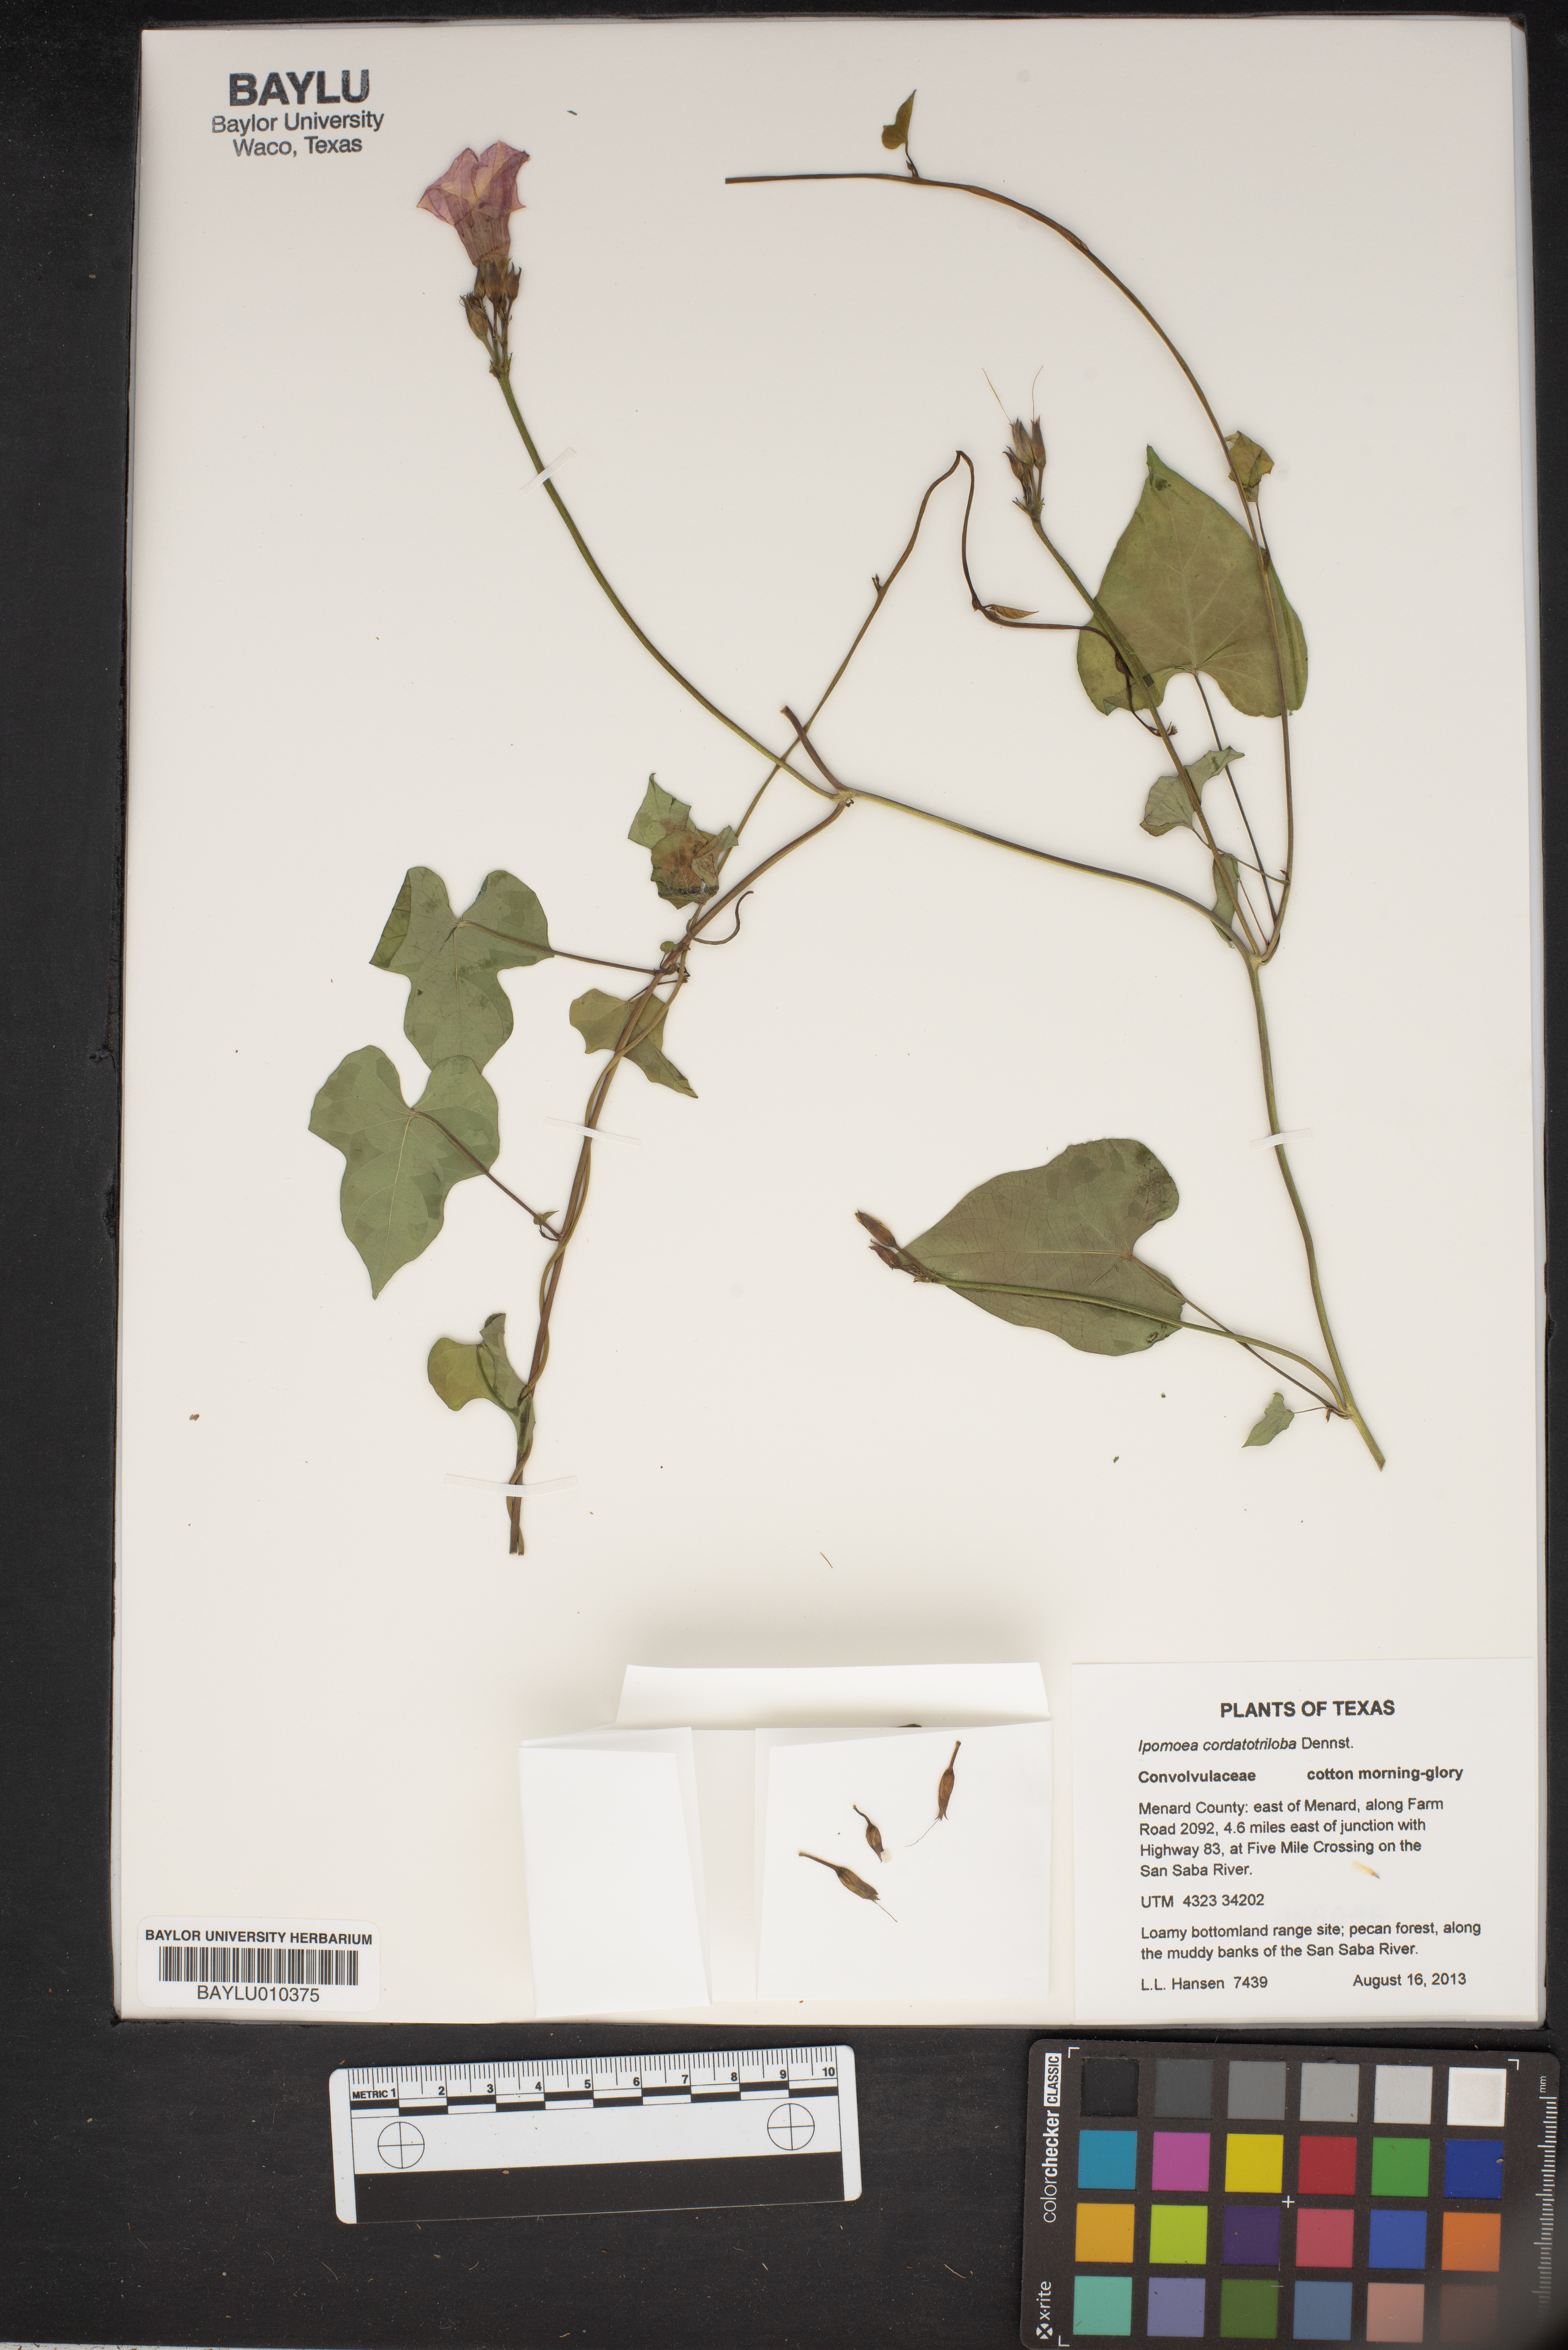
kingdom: Plantae
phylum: Tracheophyta
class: Magnoliopsida
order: Solanales
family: Convolvulaceae
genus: Ipomoea
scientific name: Ipomoea cordatotriloba
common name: Cotton morning glory
